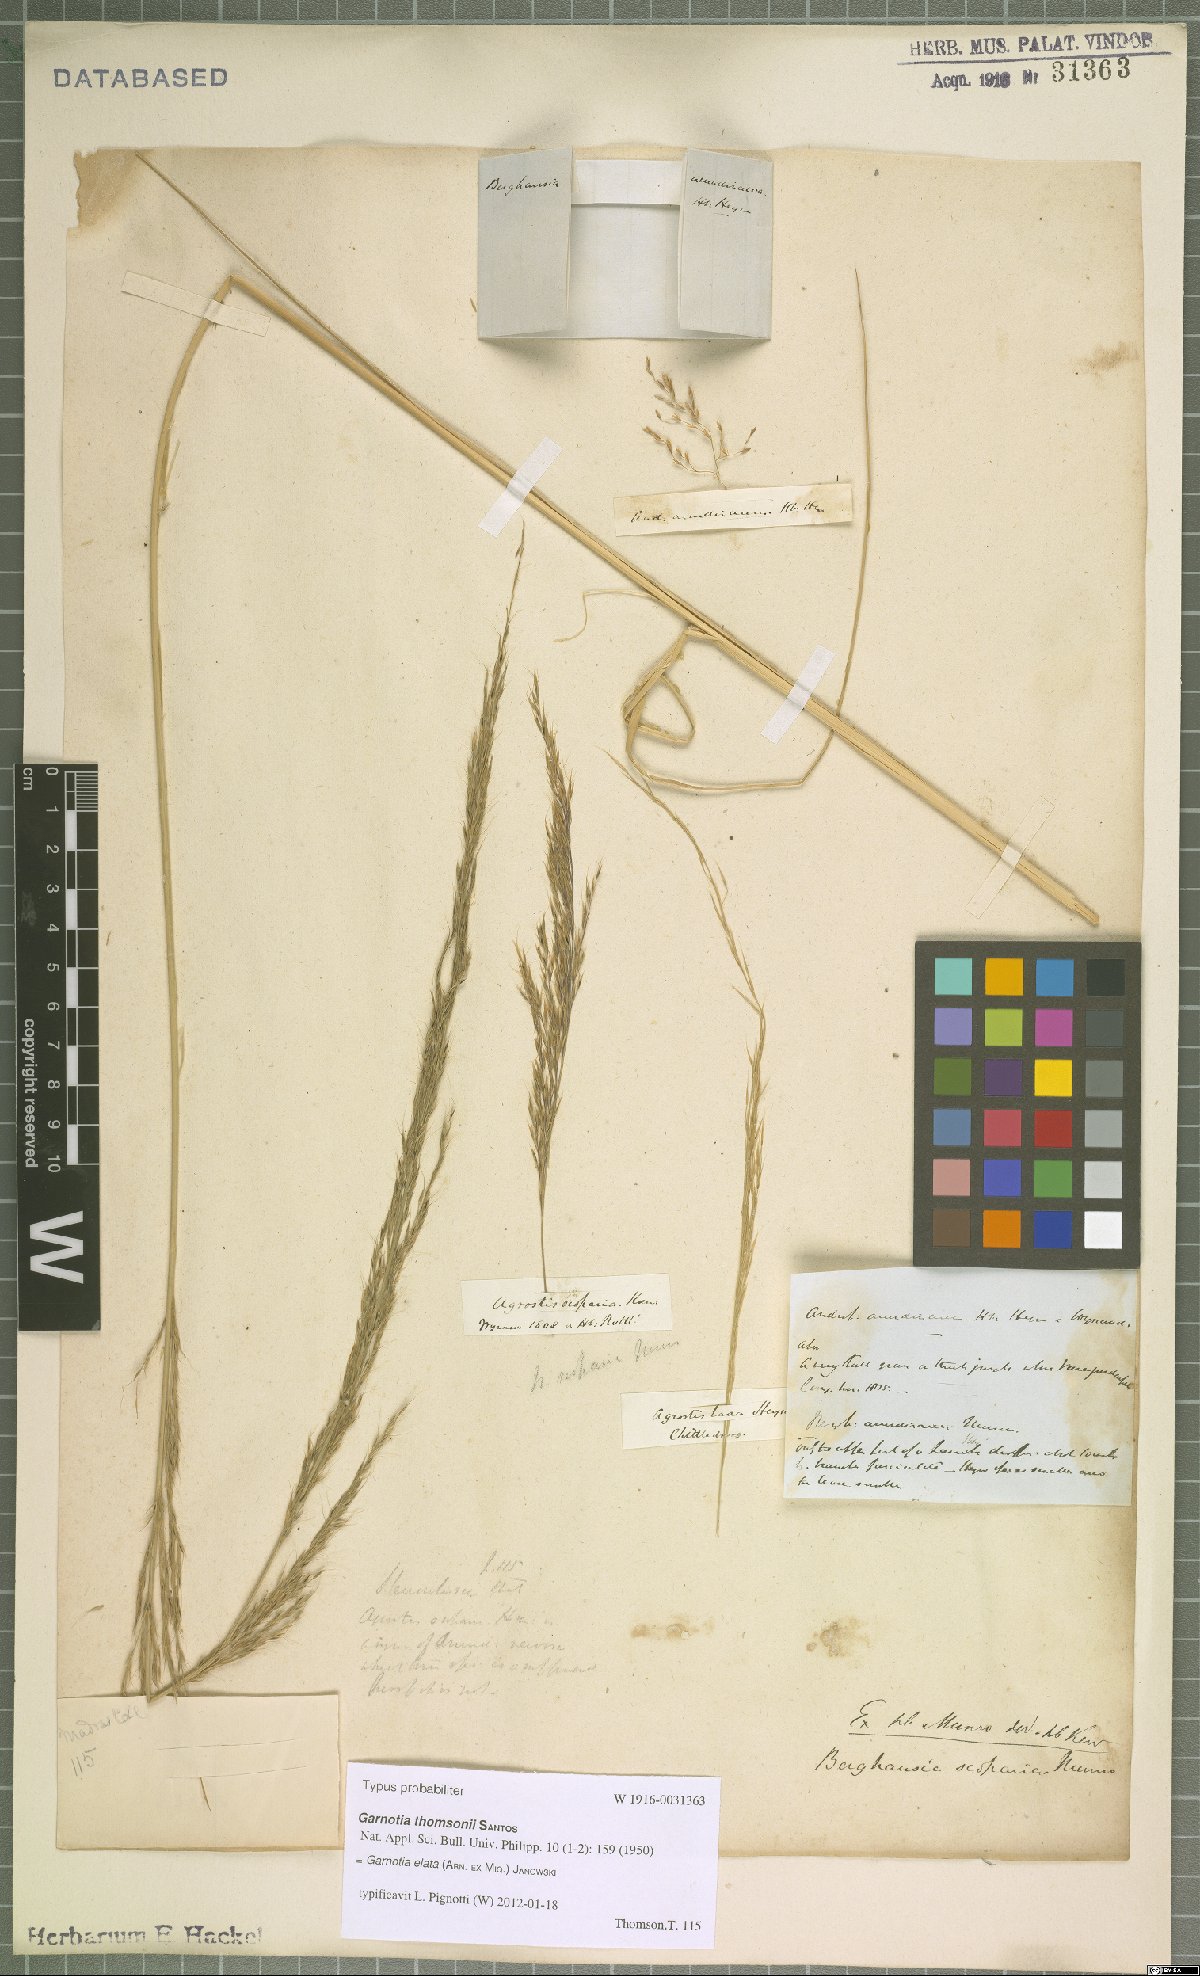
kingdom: Plantae
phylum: Tracheophyta
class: Liliopsida
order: Poales
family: Poaceae
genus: Garnotia
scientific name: Garnotia elata
